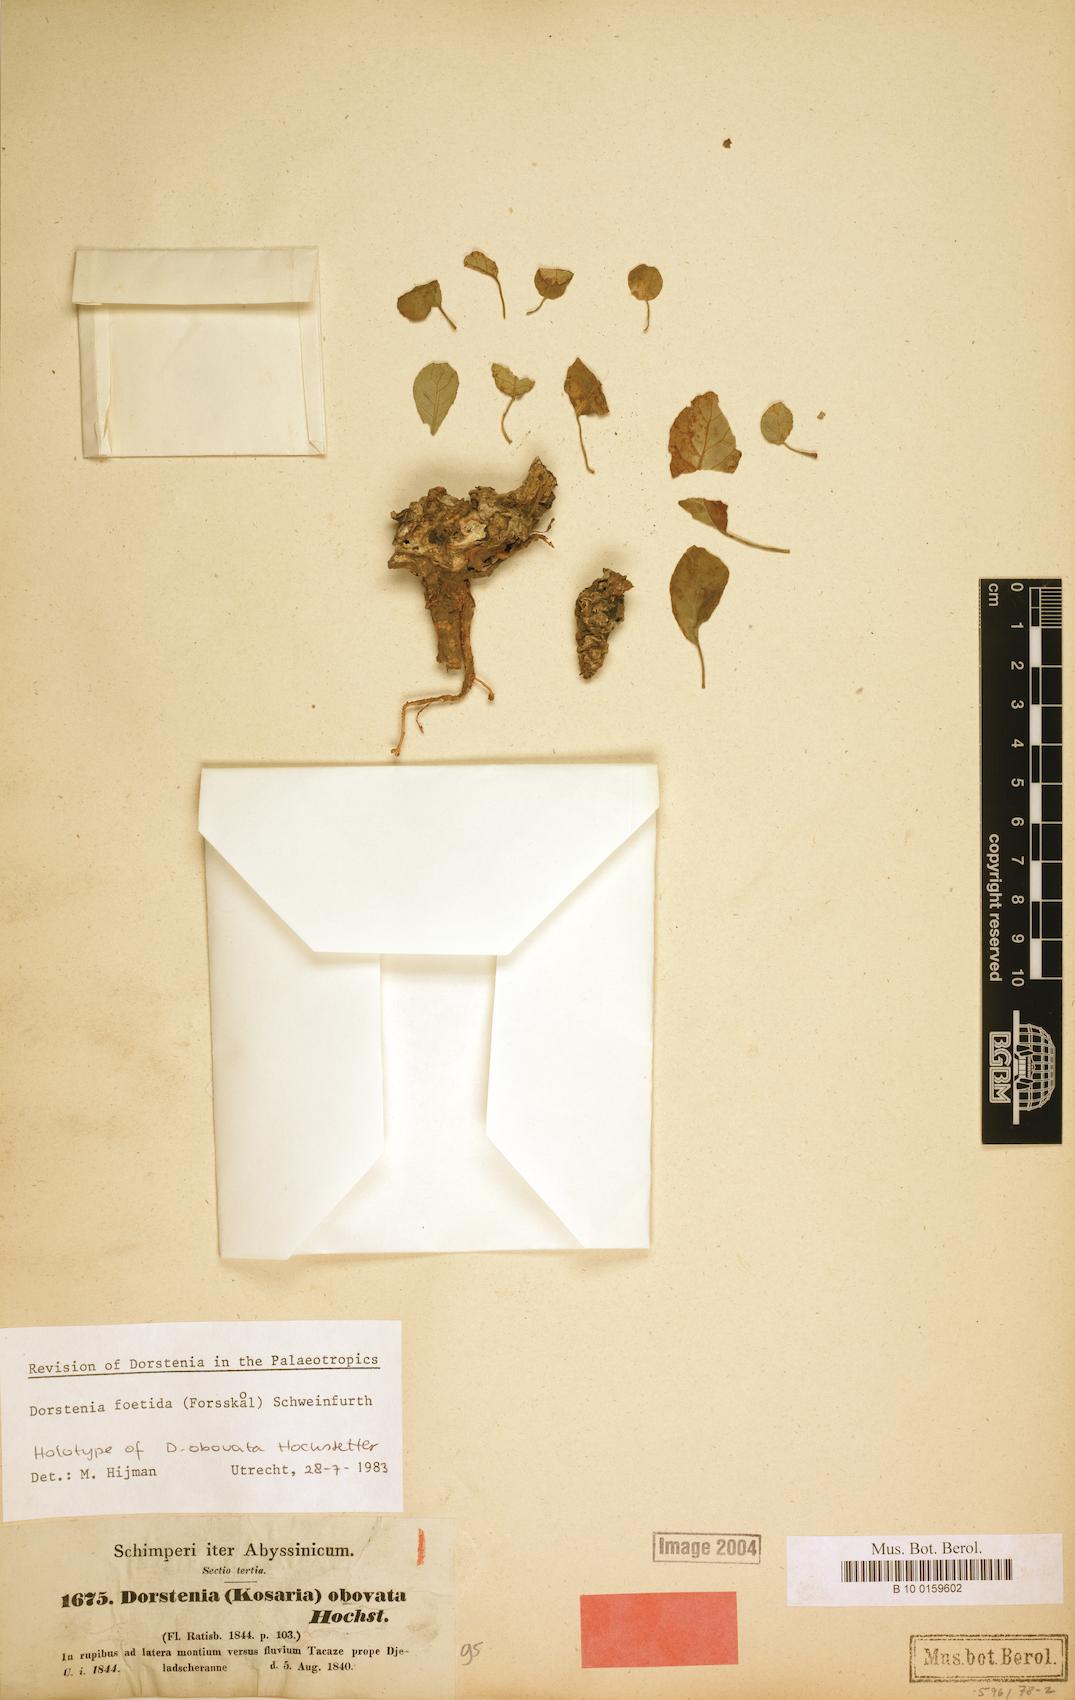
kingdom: Plantae
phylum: Tracheophyta
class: Magnoliopsida
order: Rosales
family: Moraceae
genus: Dorstenia
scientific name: Dorstenia foetida
